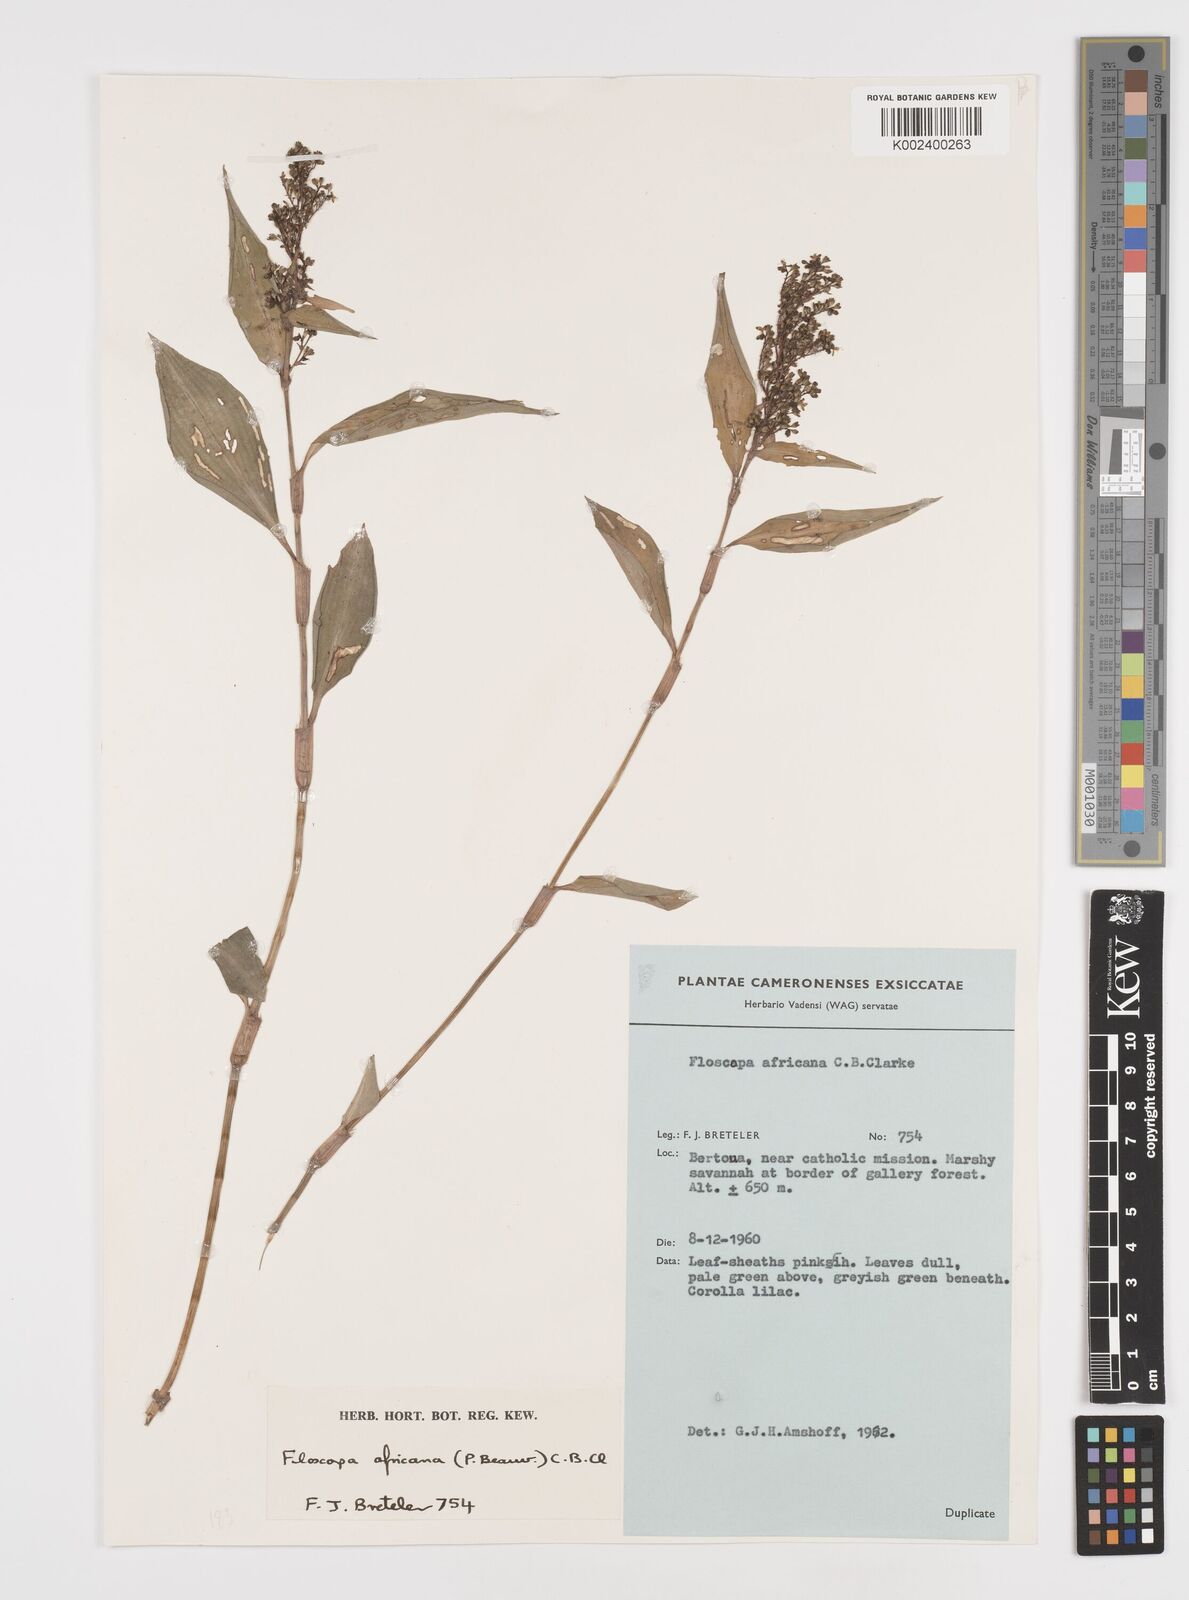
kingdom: Plantae
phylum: Tracheophyta
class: Liliopsida
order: Commelinales
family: Commelinaceae
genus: Floscopa
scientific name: Floscopa africana
